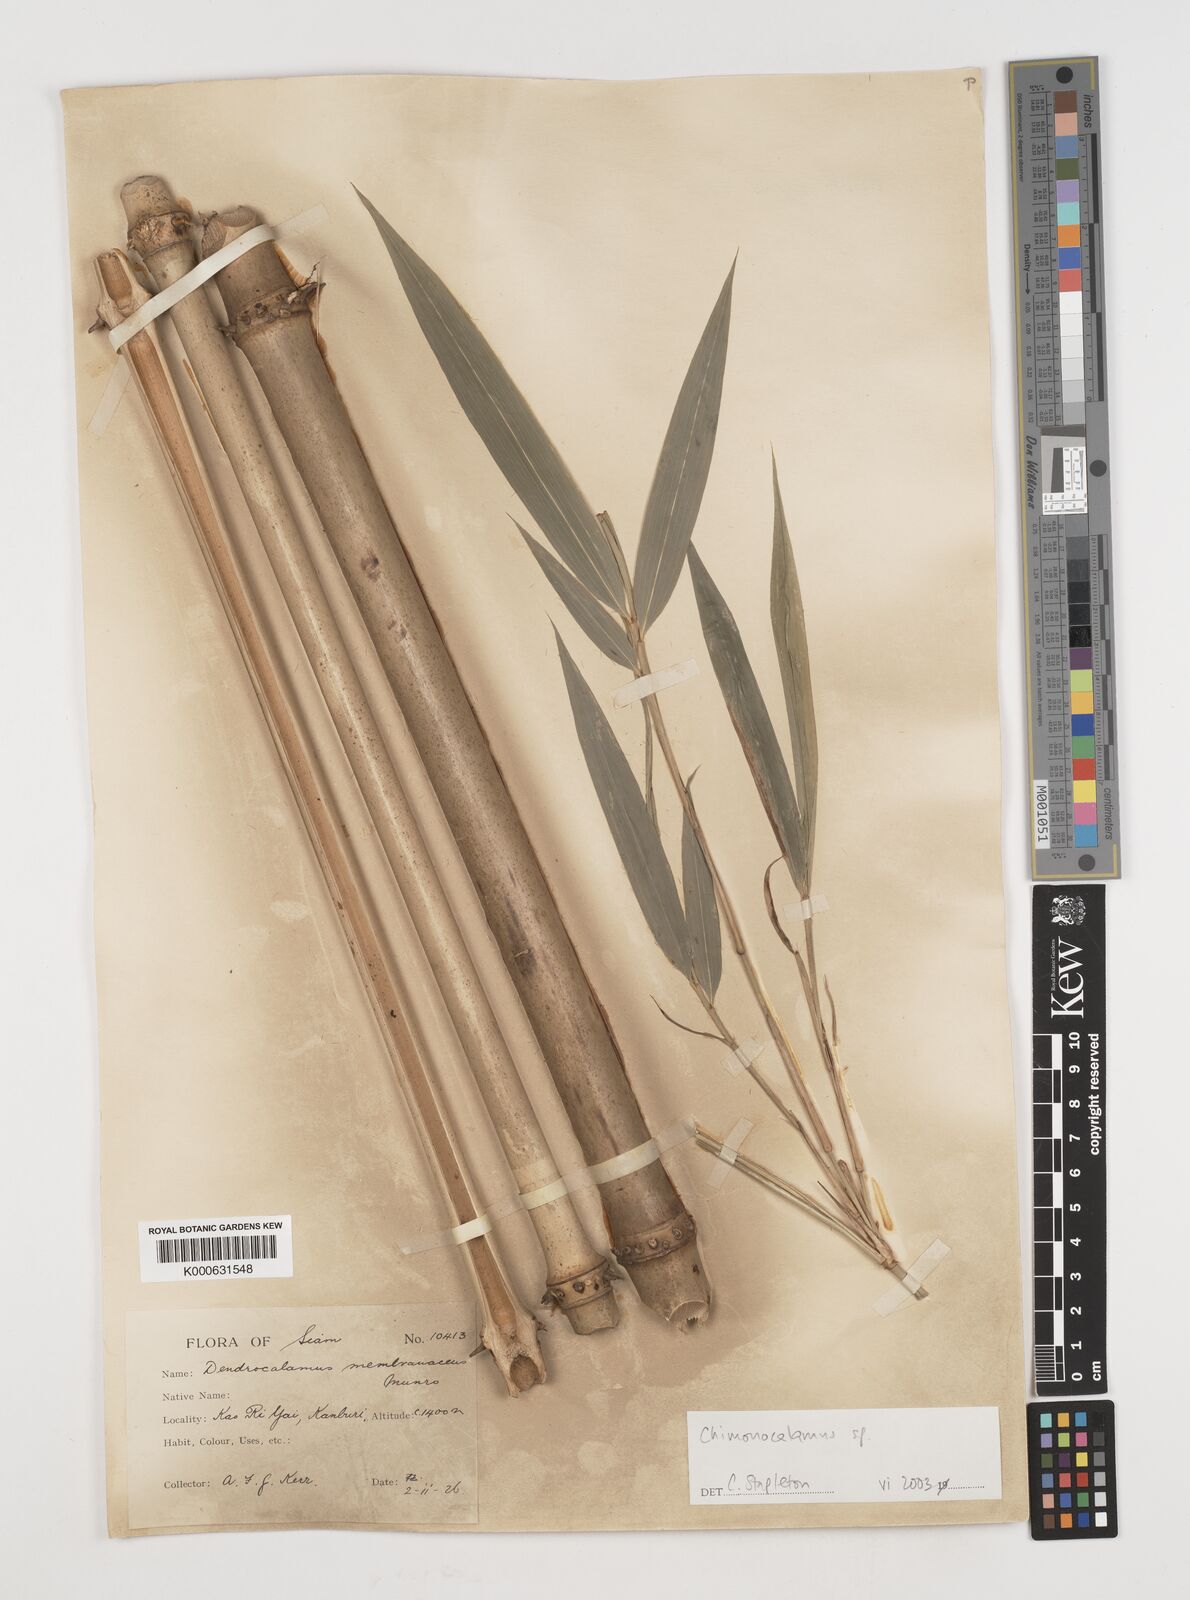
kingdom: Plantae
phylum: Tracheophyta
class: Liliopsida
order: Poales
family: Poaceae
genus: Chimonocalamus
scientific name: Chimonocalamus
